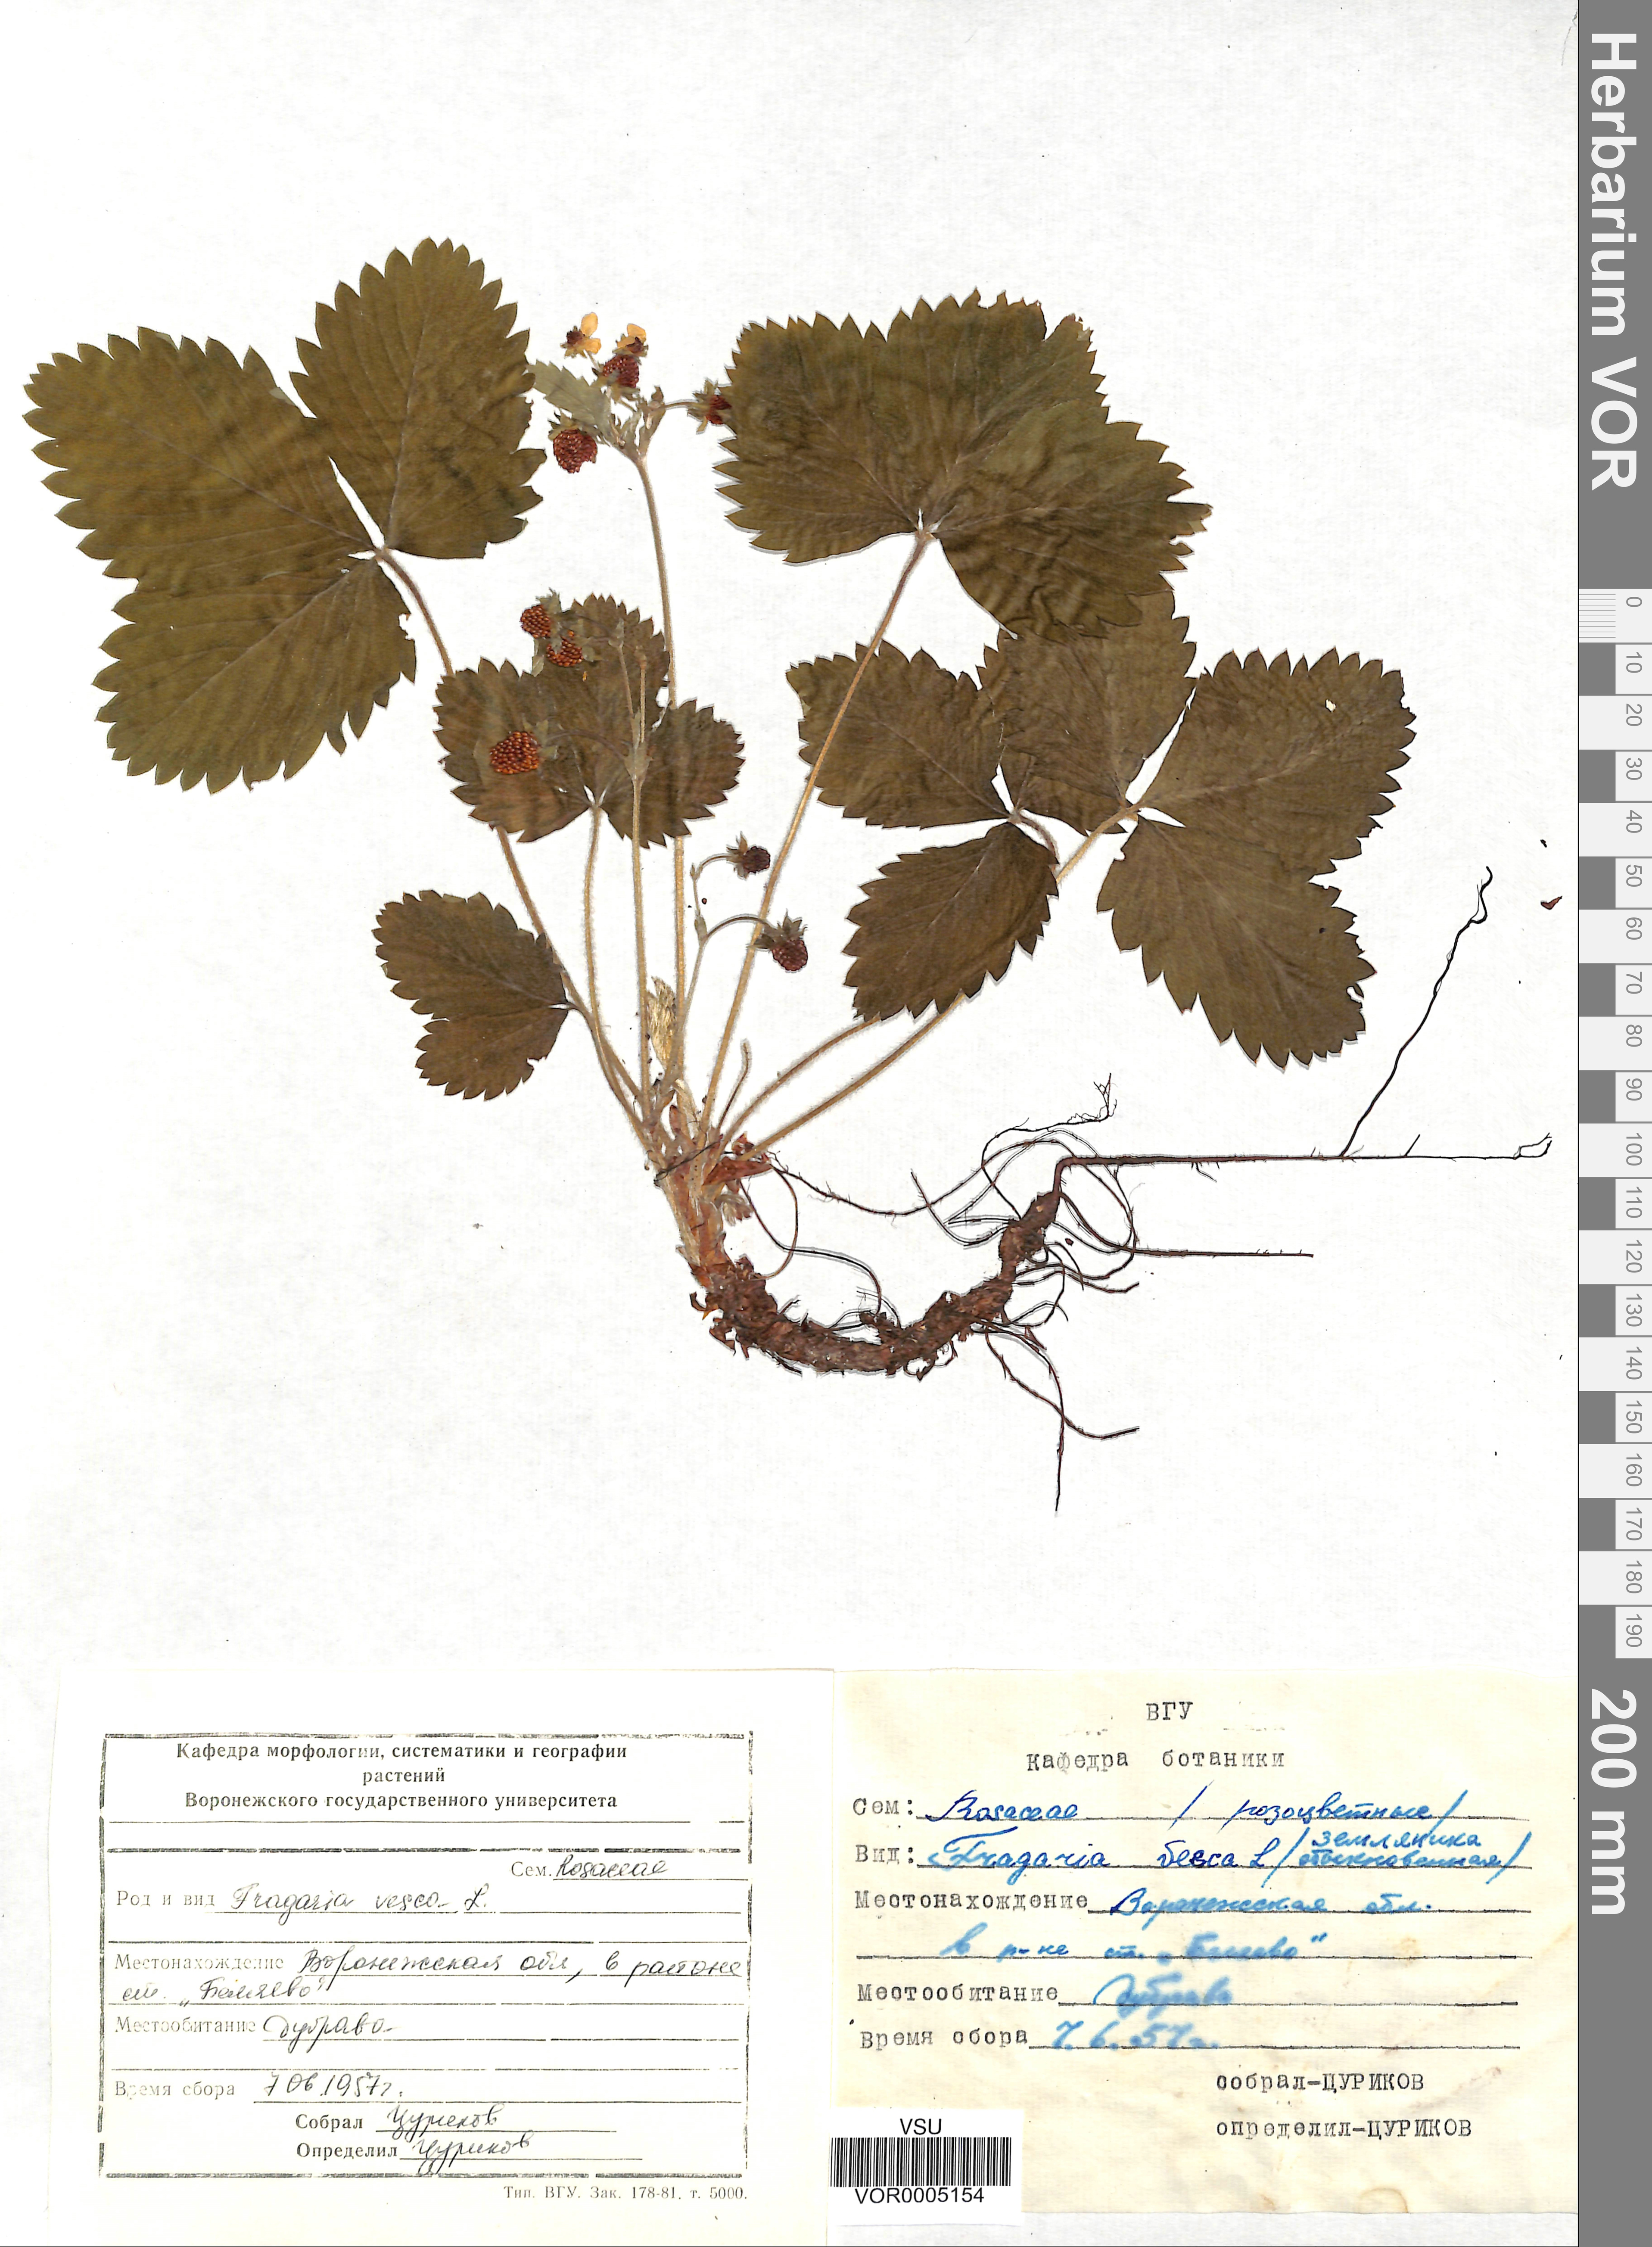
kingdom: Plantae
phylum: Tracheophyta
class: Magnoliopsida
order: Rosales
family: Rosaceae
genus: Fragaria
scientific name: Fragaria vesca
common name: Wild strawberry
